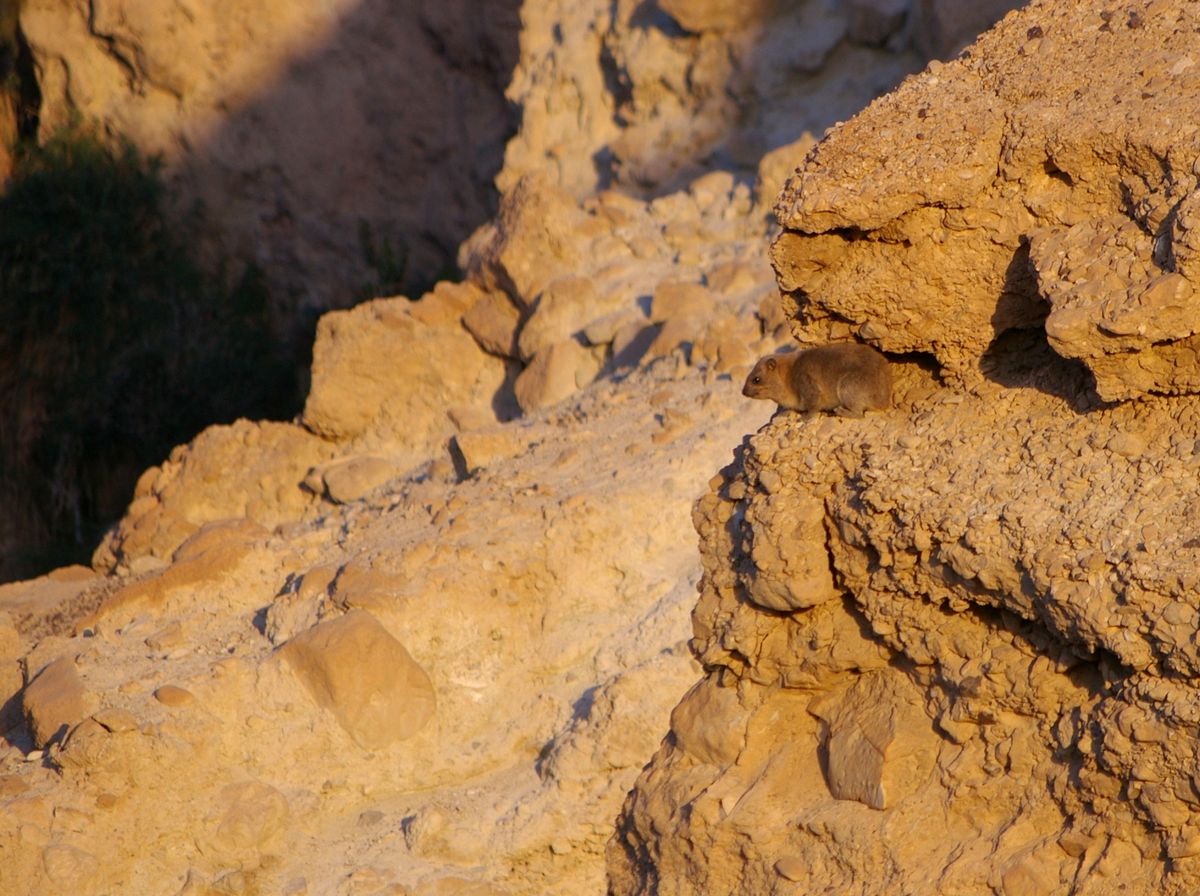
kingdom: Animalia
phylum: Chordata
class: Mammalia
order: Hyracoidea
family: Procaviidae
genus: Procavia
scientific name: Procavia capensis
